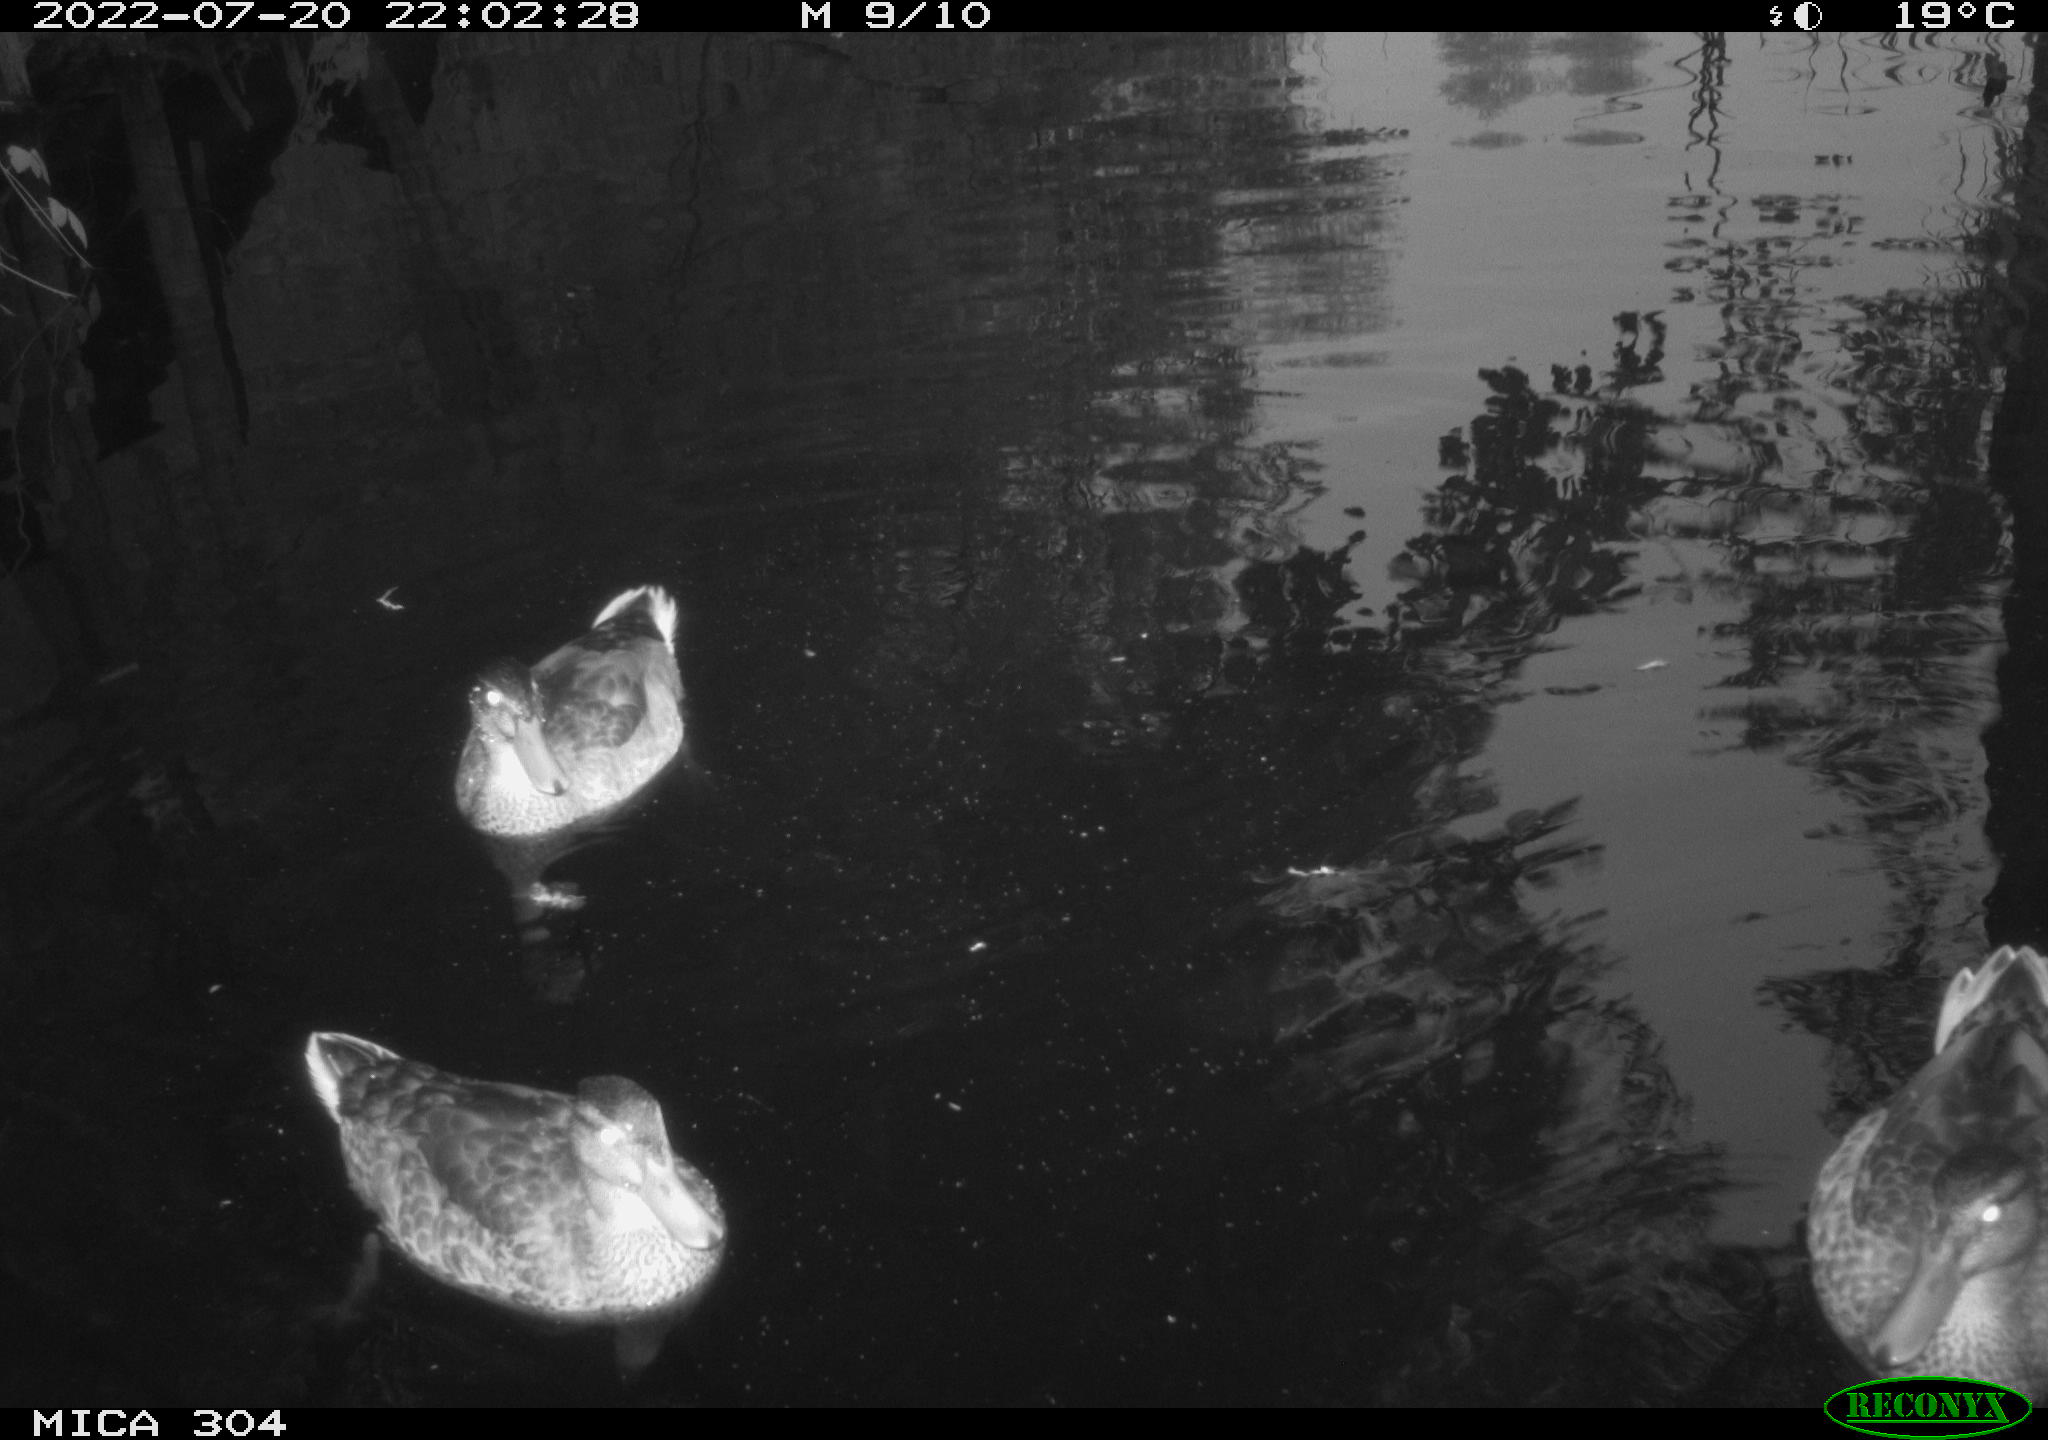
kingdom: Animalia
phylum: Chordata
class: Aves
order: Anseriformes
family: Anatidae
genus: Anas
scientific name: Anas platyrhynchos
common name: Mallard
